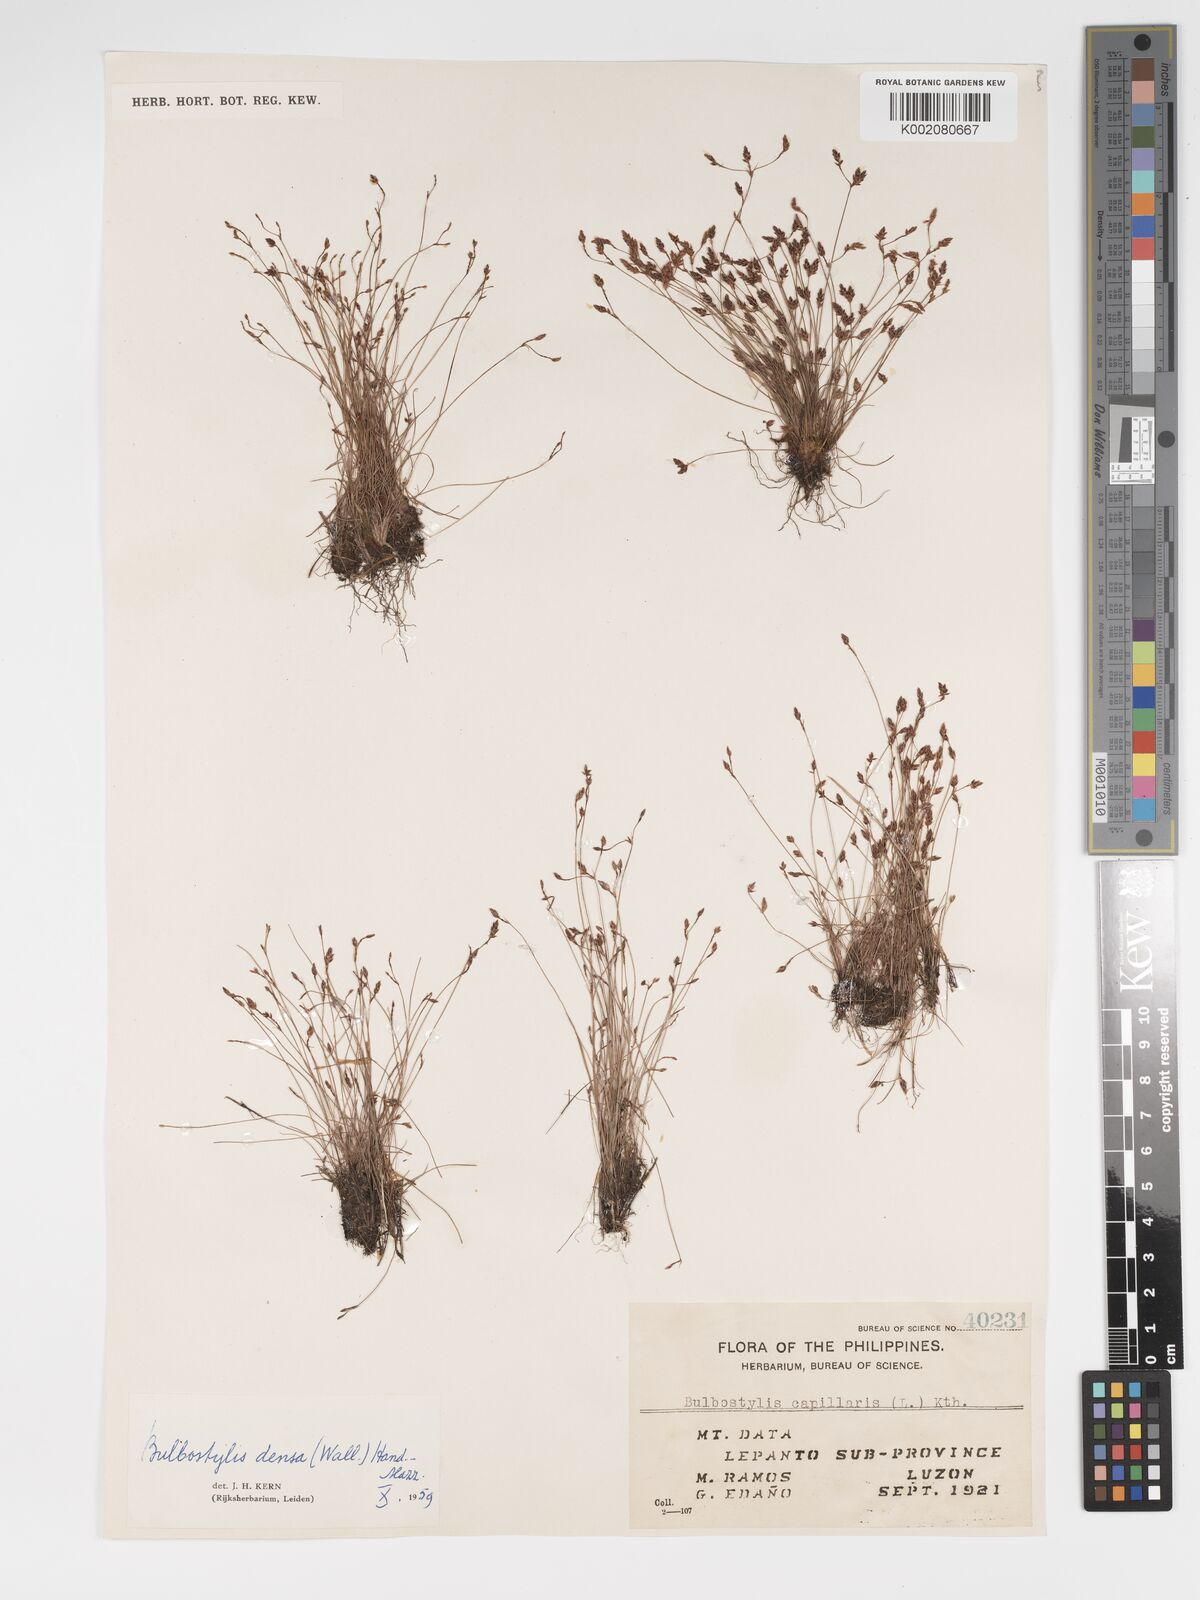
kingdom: Plantae
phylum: Tracheophyta
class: Liliopsida
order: Poales
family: Cyperaceae
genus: Bulbostylis
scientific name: Bulbostylis densa
